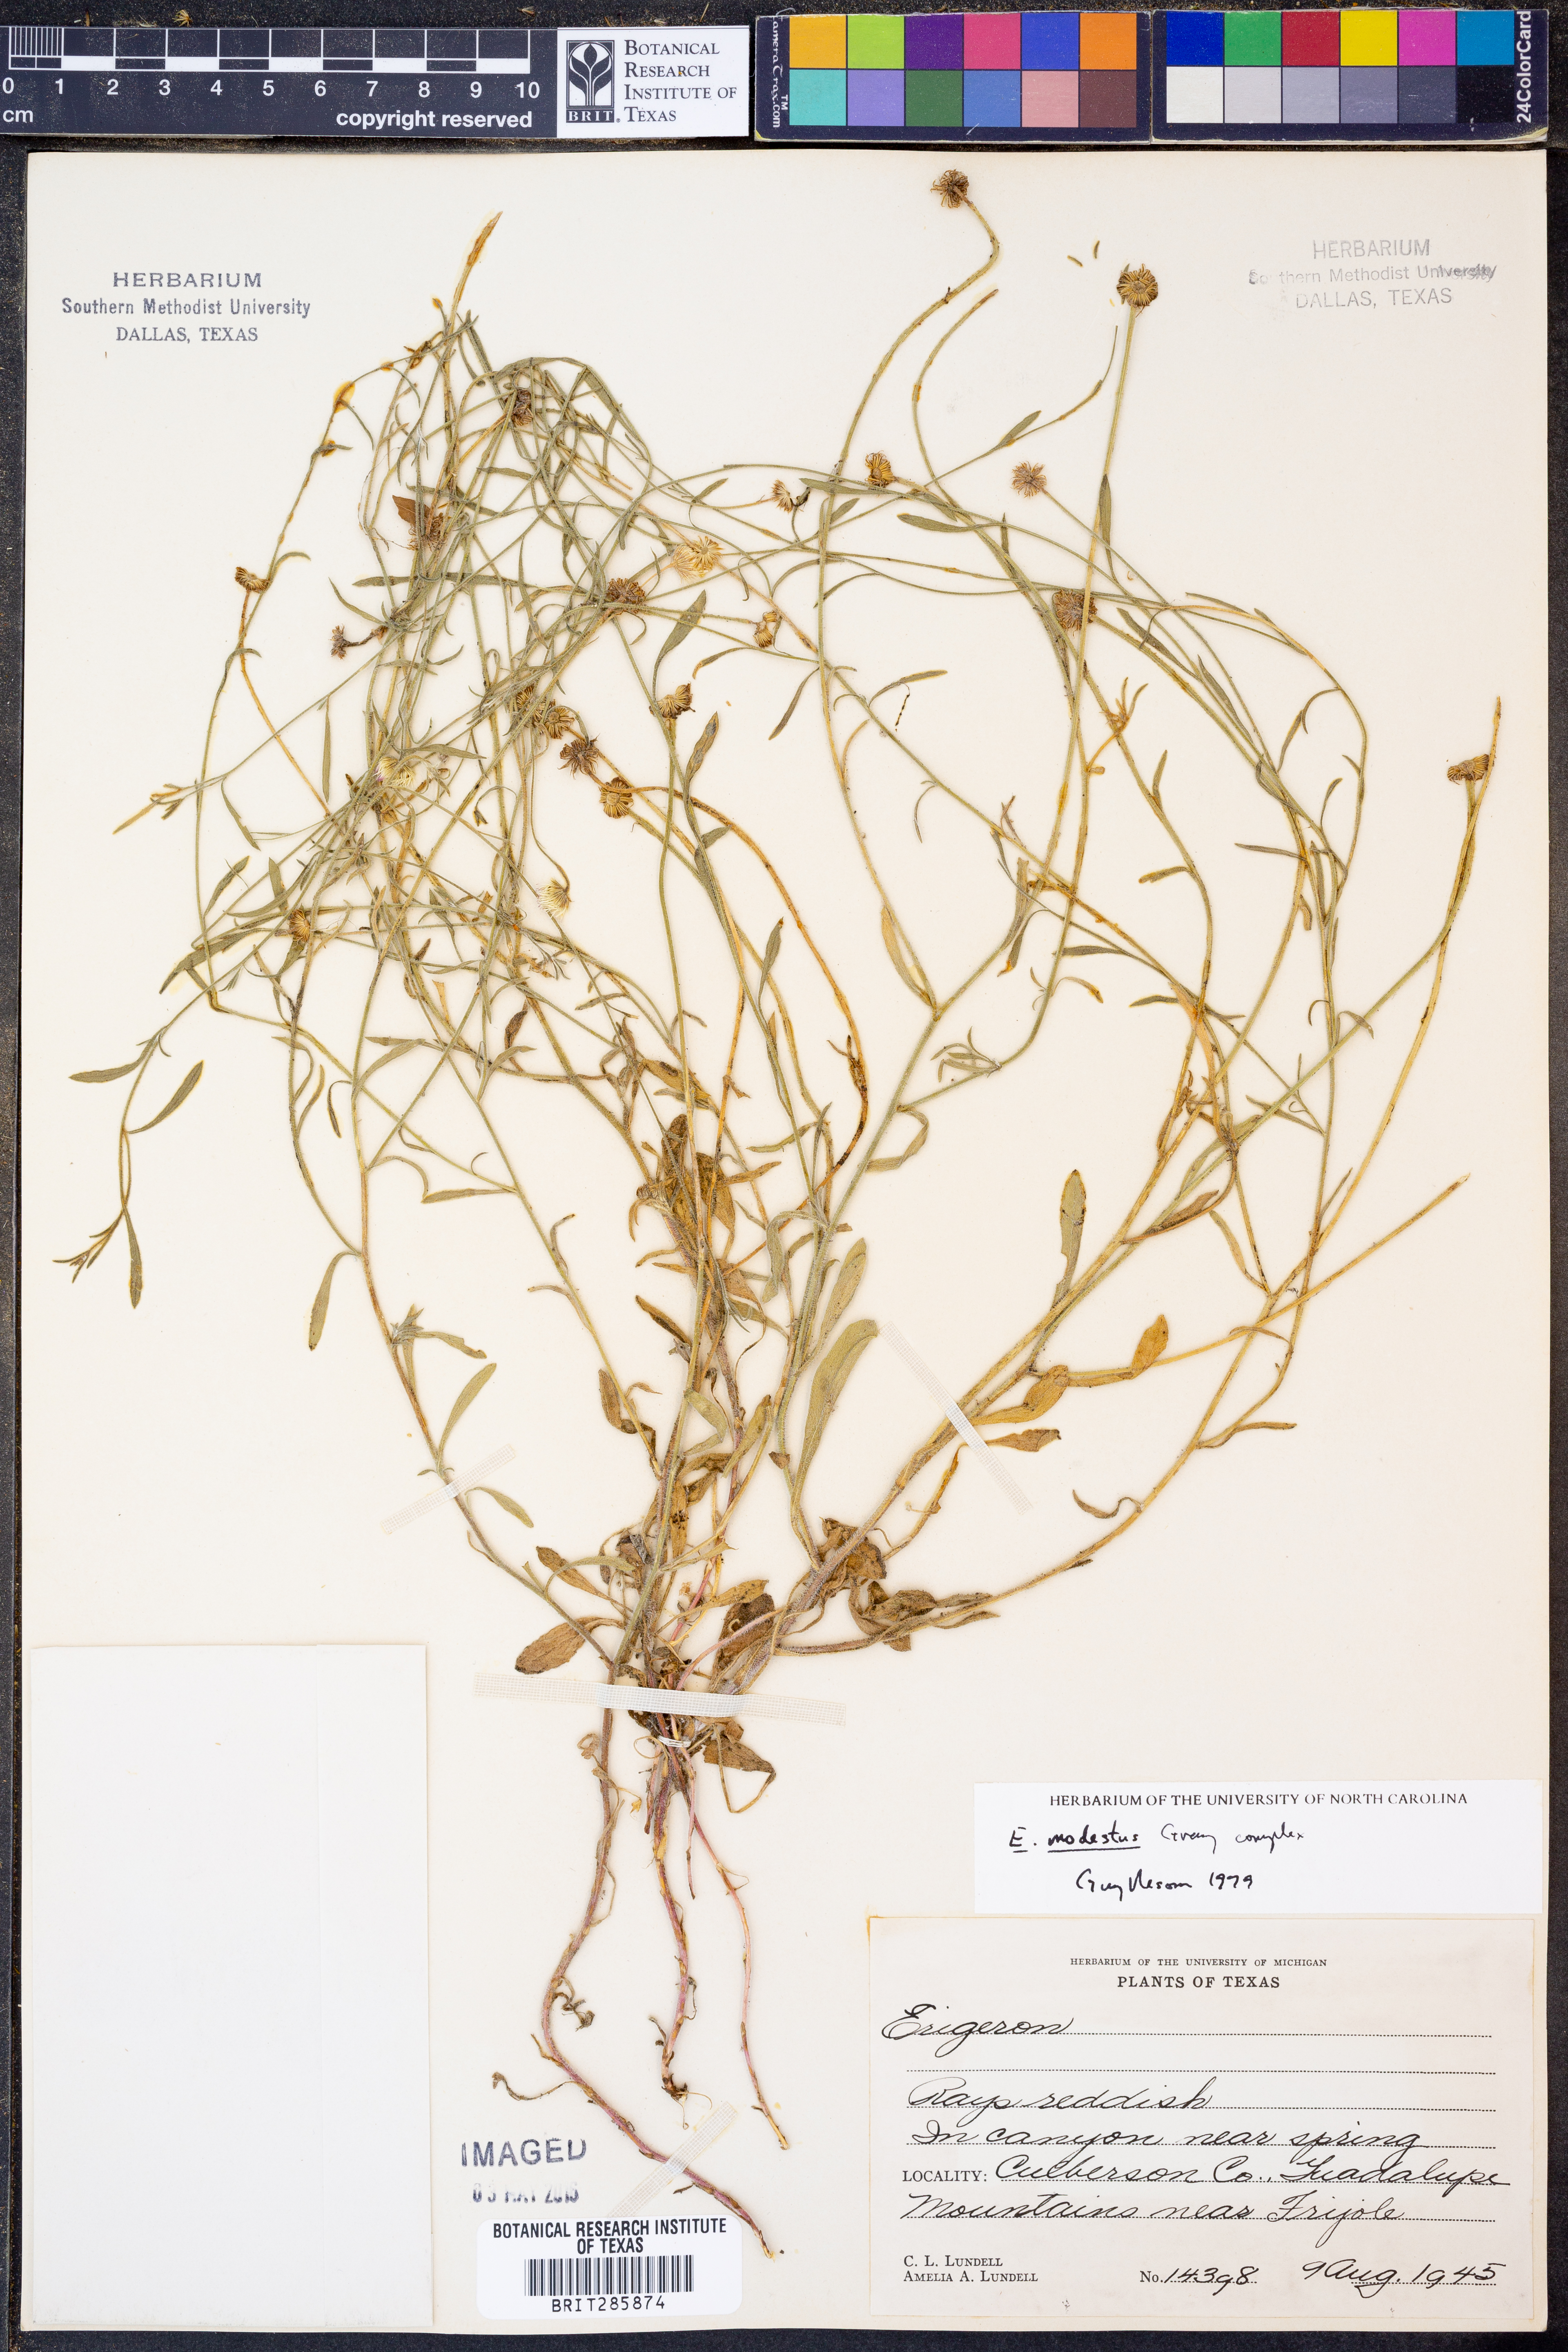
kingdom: Plantae
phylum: Tracheophyta
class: Magnoliopsida
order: Asterales
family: Asteraceae
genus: Erigeron
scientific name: Erigeron modestus
